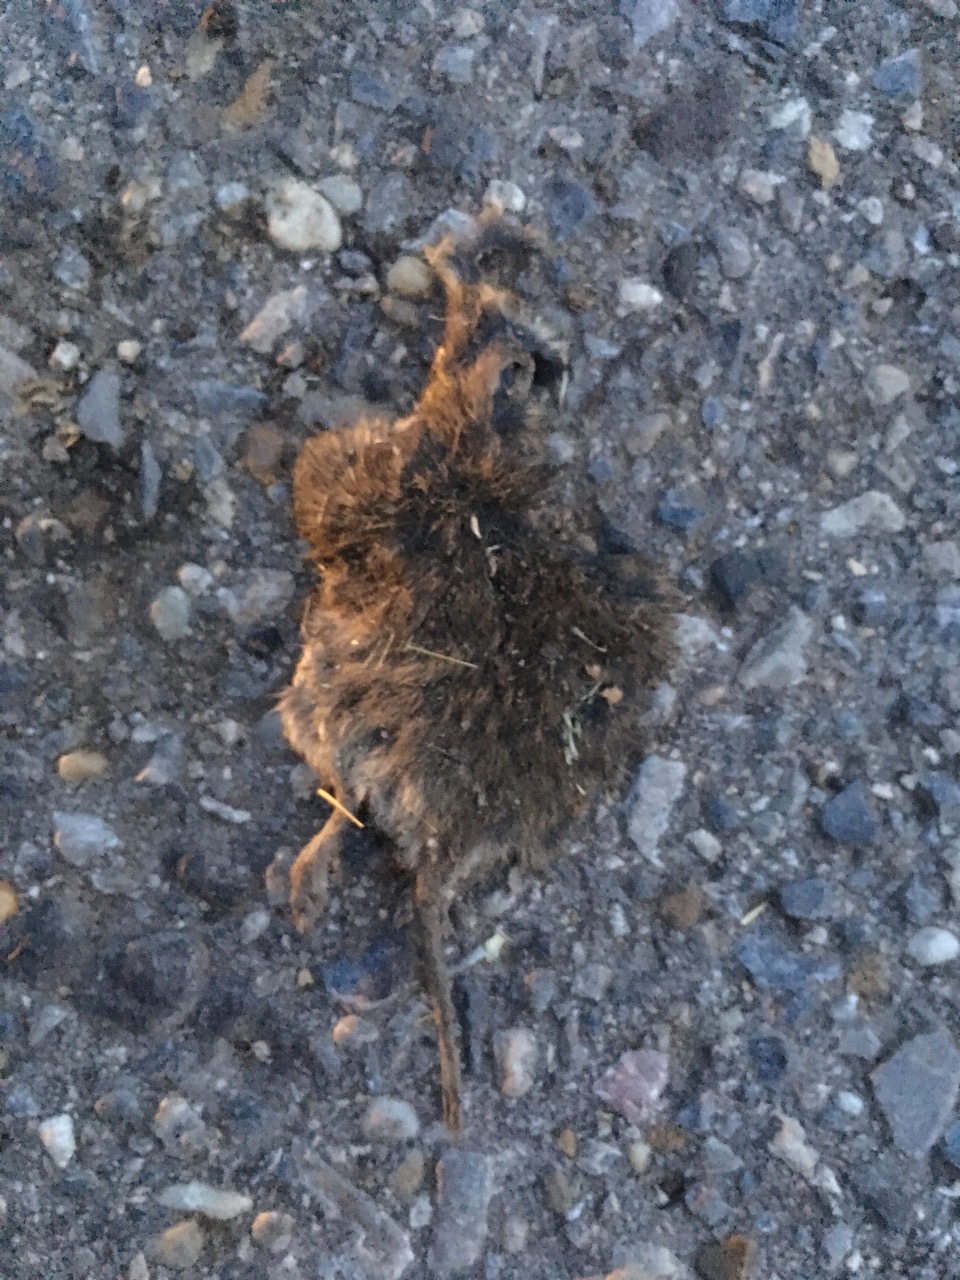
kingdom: Animalia
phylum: Chordata
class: Mammalia
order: Rodentia
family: Cricetidae
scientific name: Cricetidae
